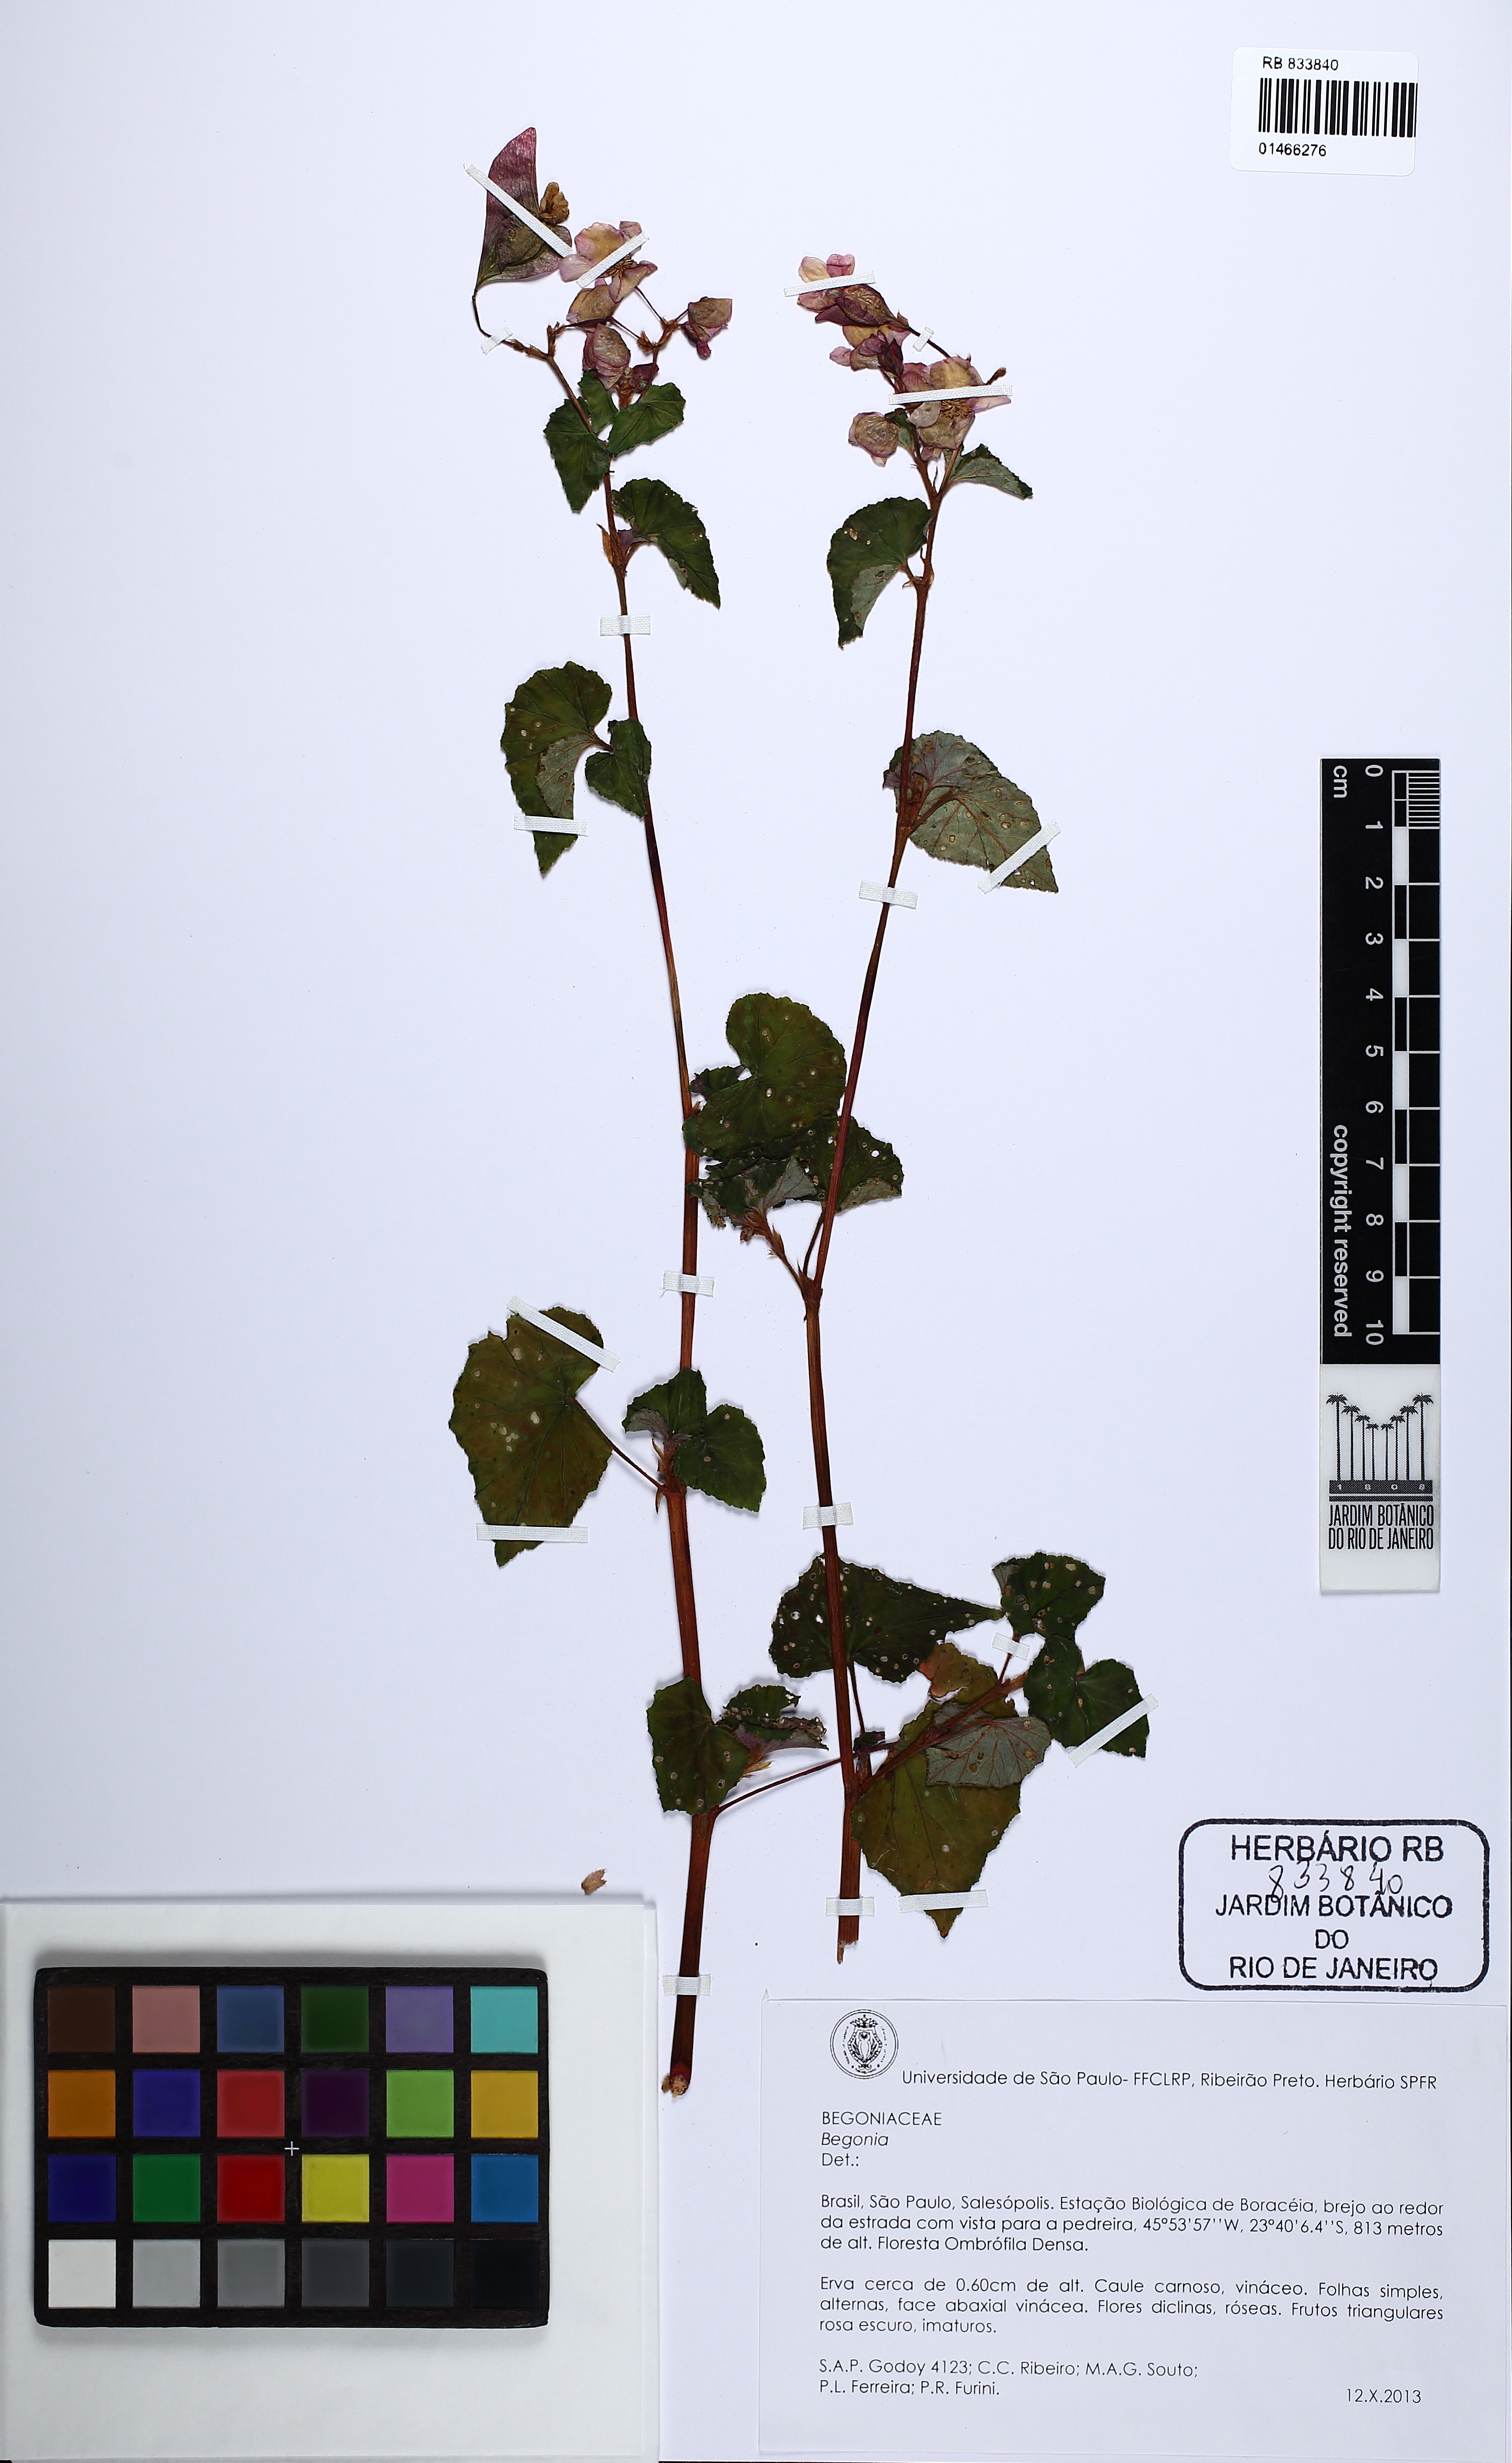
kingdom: Plantae
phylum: Tracheophyta
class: Magnoliopsida
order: Cucurbitales
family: Begoniaceae
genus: Begonia
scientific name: Begonia fischeri
